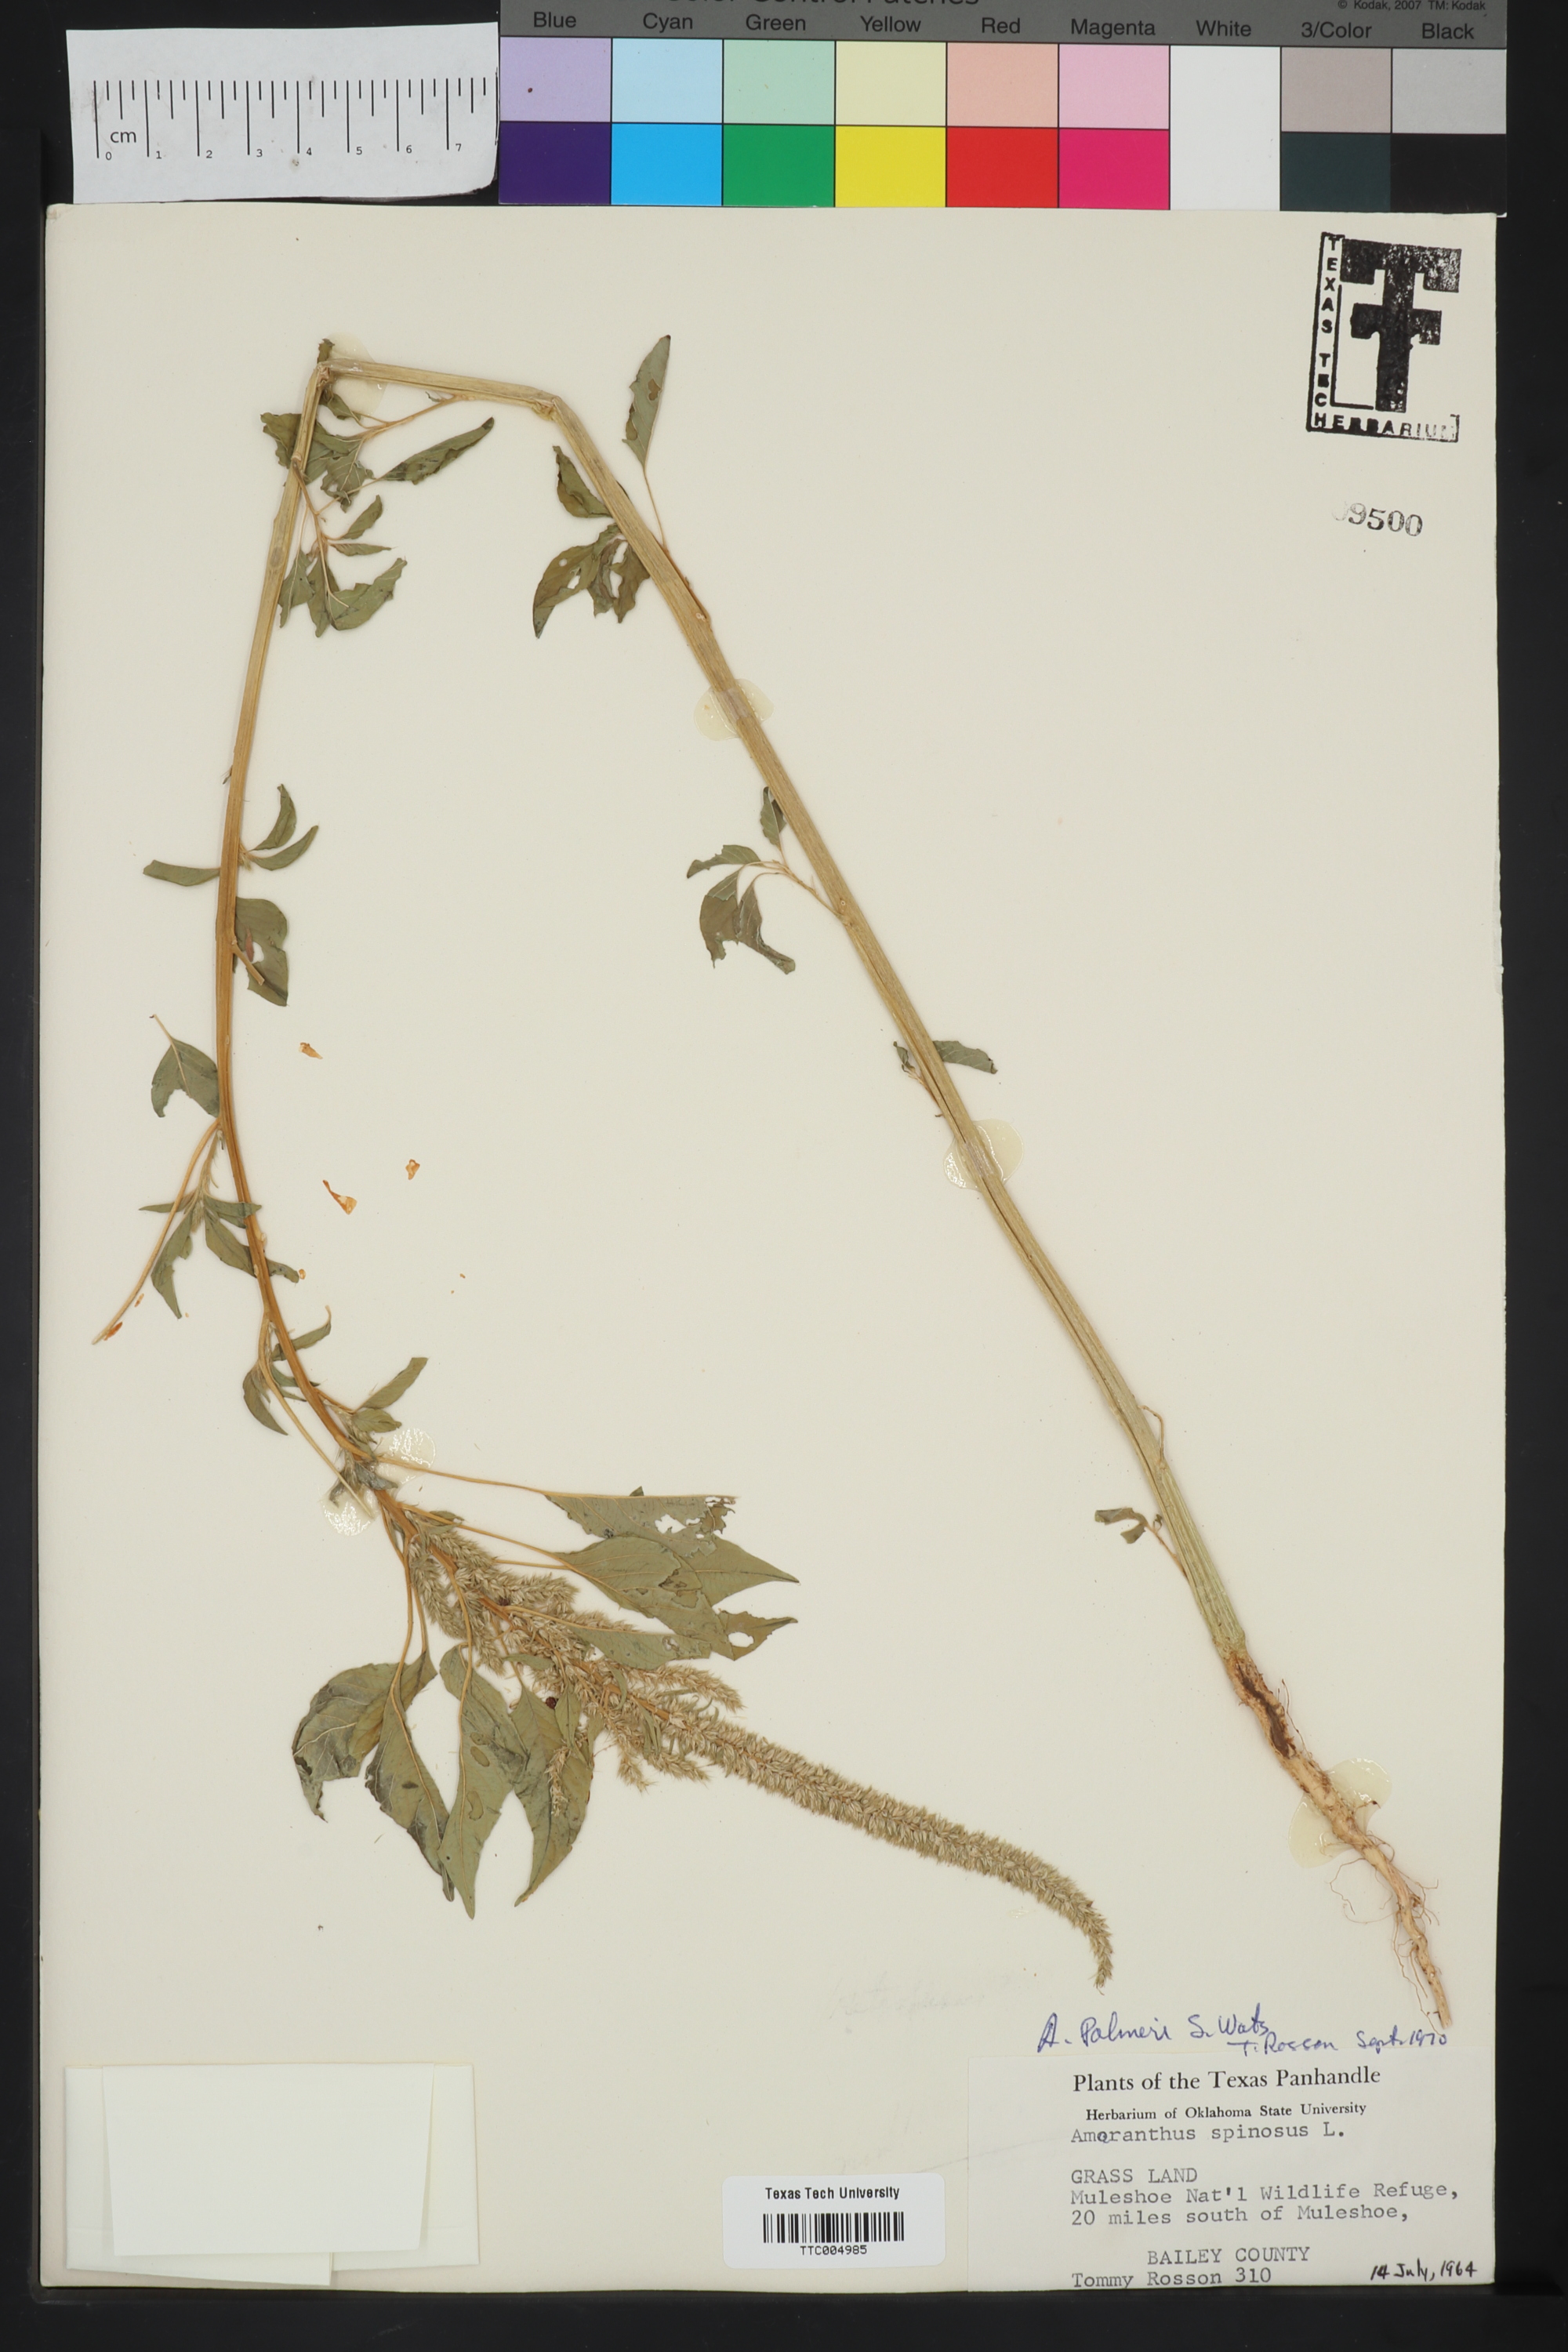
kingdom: Plantae
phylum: Tracheophyta
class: Magnoliopsida
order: Caryophyllales
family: Amaranthaceae
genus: Amaranthus
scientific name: Amaranthus palmeri
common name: Dioecious amaranth
